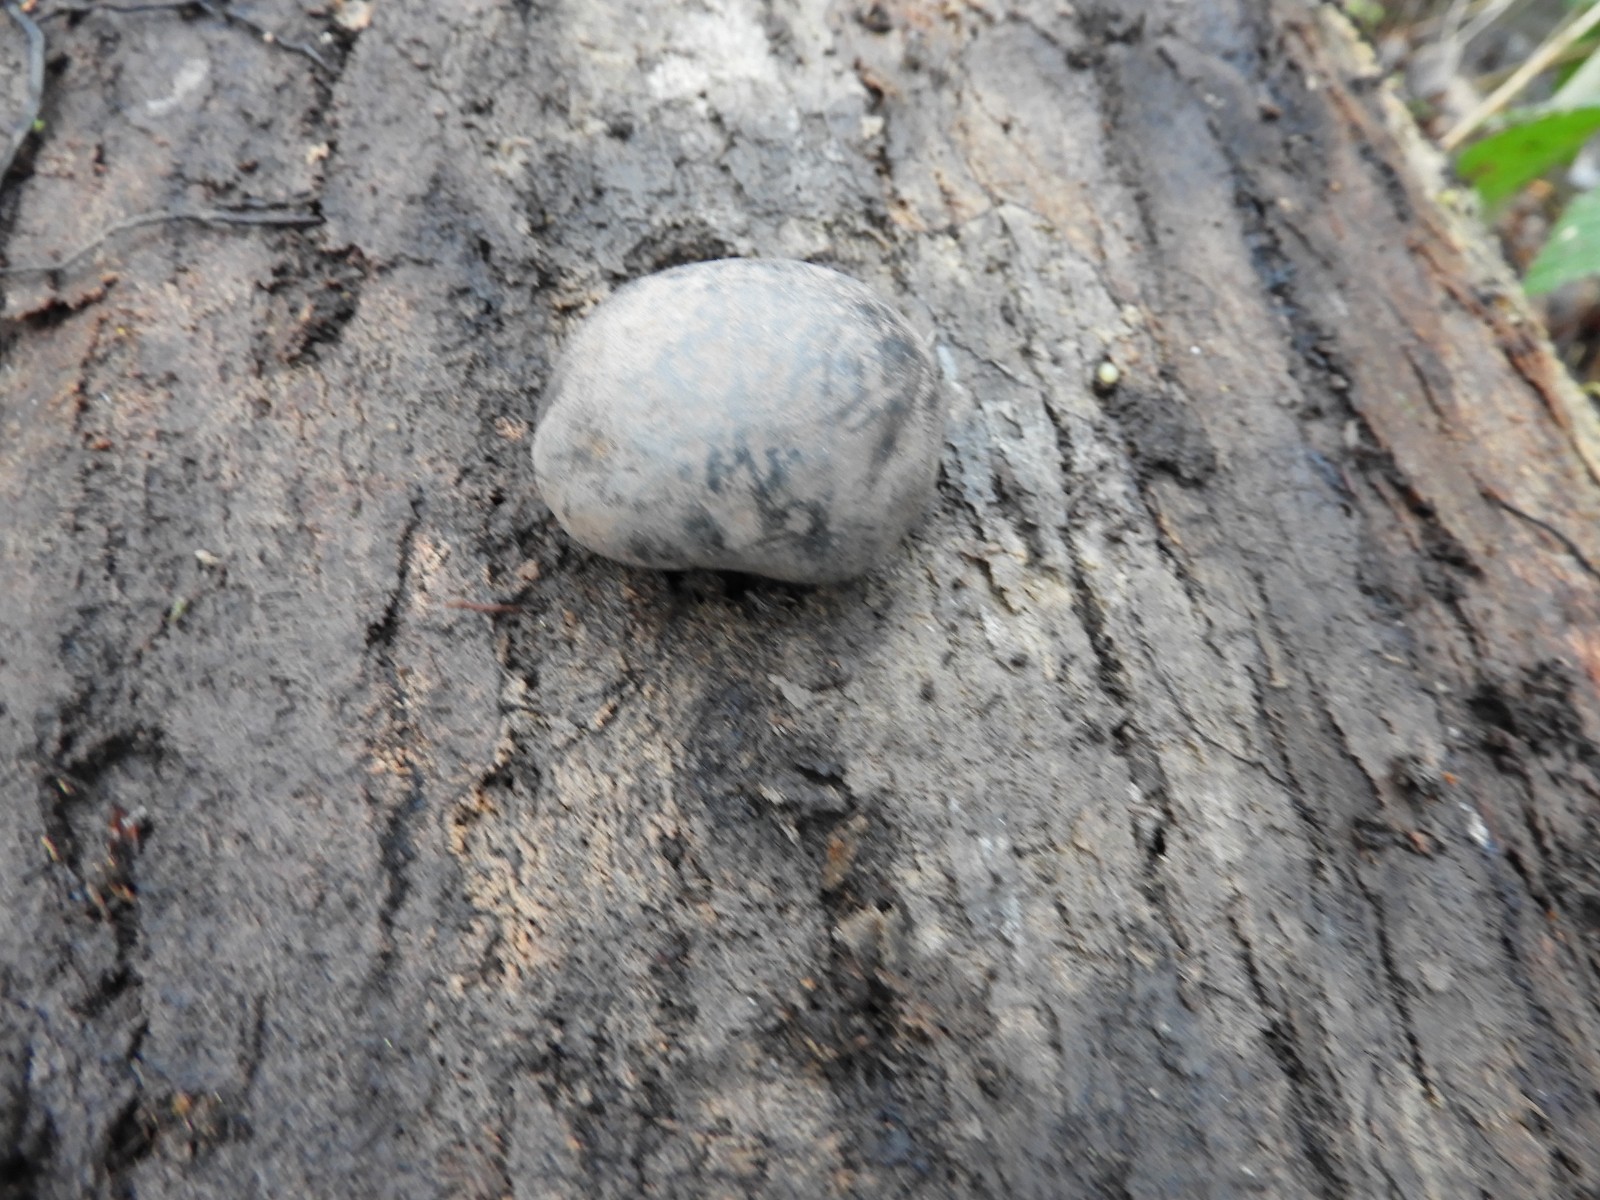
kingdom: Fungi
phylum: Ascomycota
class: Sordariomycetes
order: Xylariales
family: Hypoxylaceae
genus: Daldinia
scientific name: Daldinia concentrica
